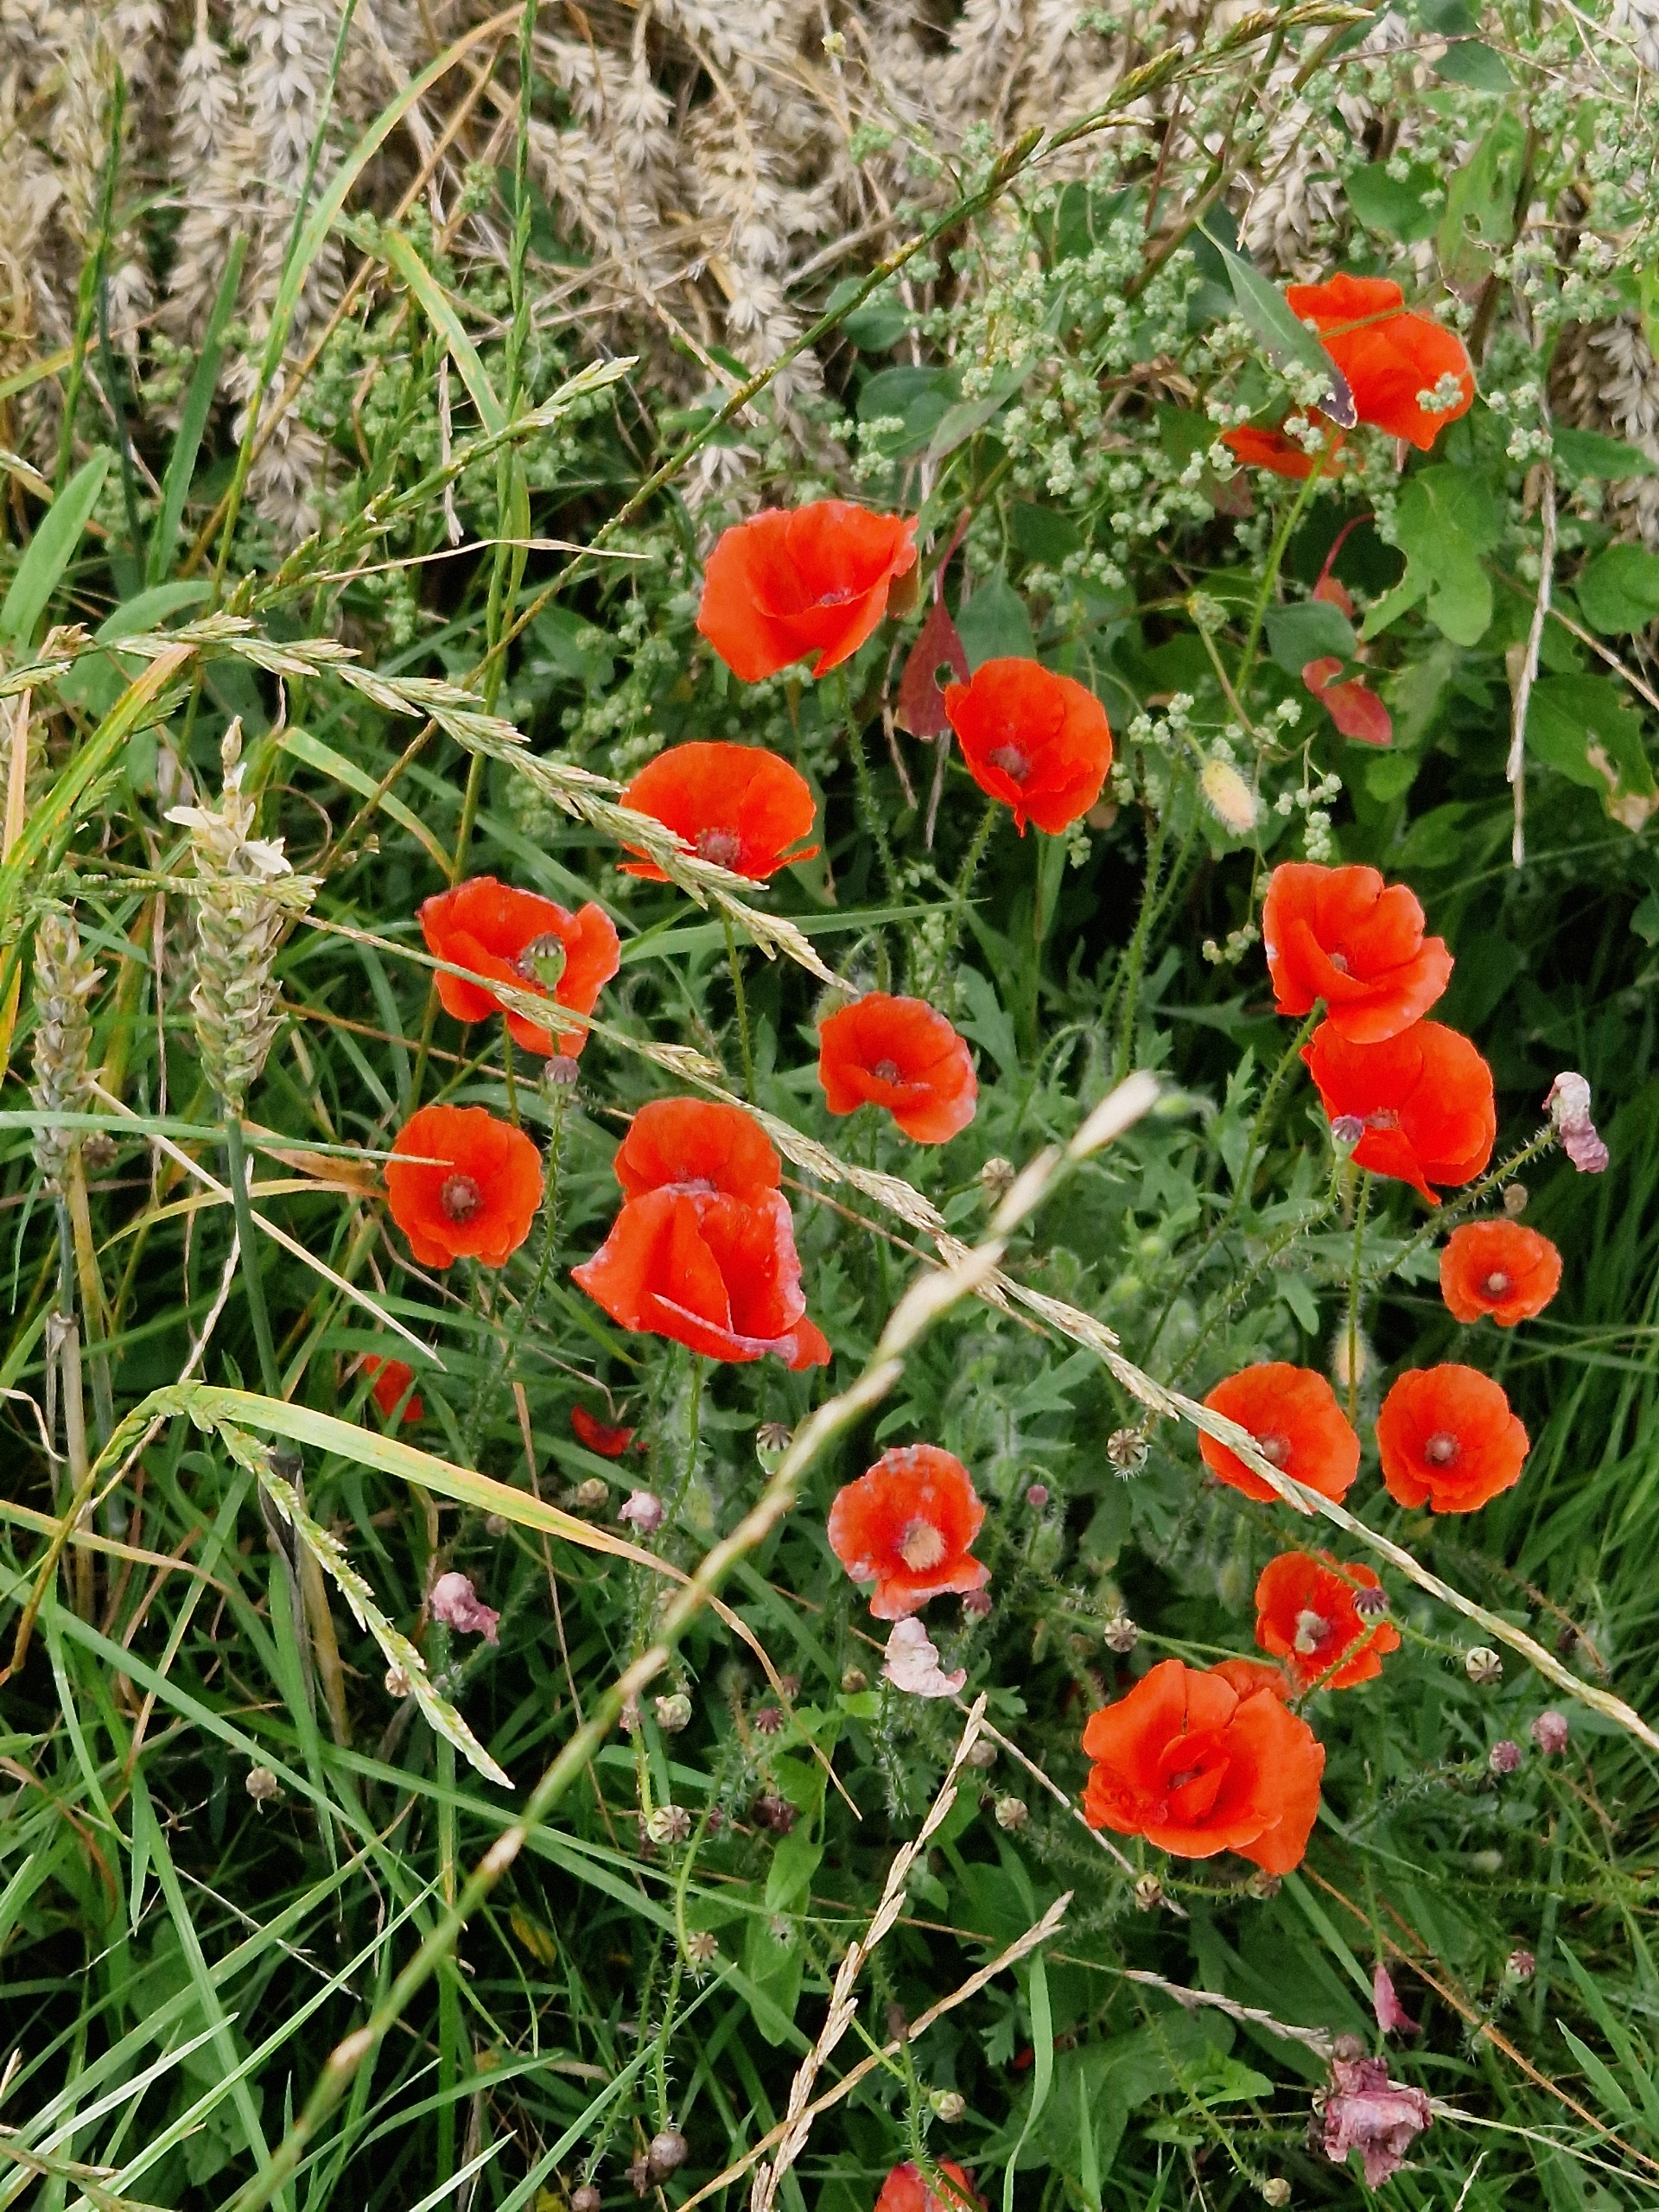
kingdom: Plantae
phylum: Tracheophyta
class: Magnoliopsida
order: Ranunculales
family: Papaveraceae
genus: Papaver
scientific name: Papaver rhoeas
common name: Korn-valmue
